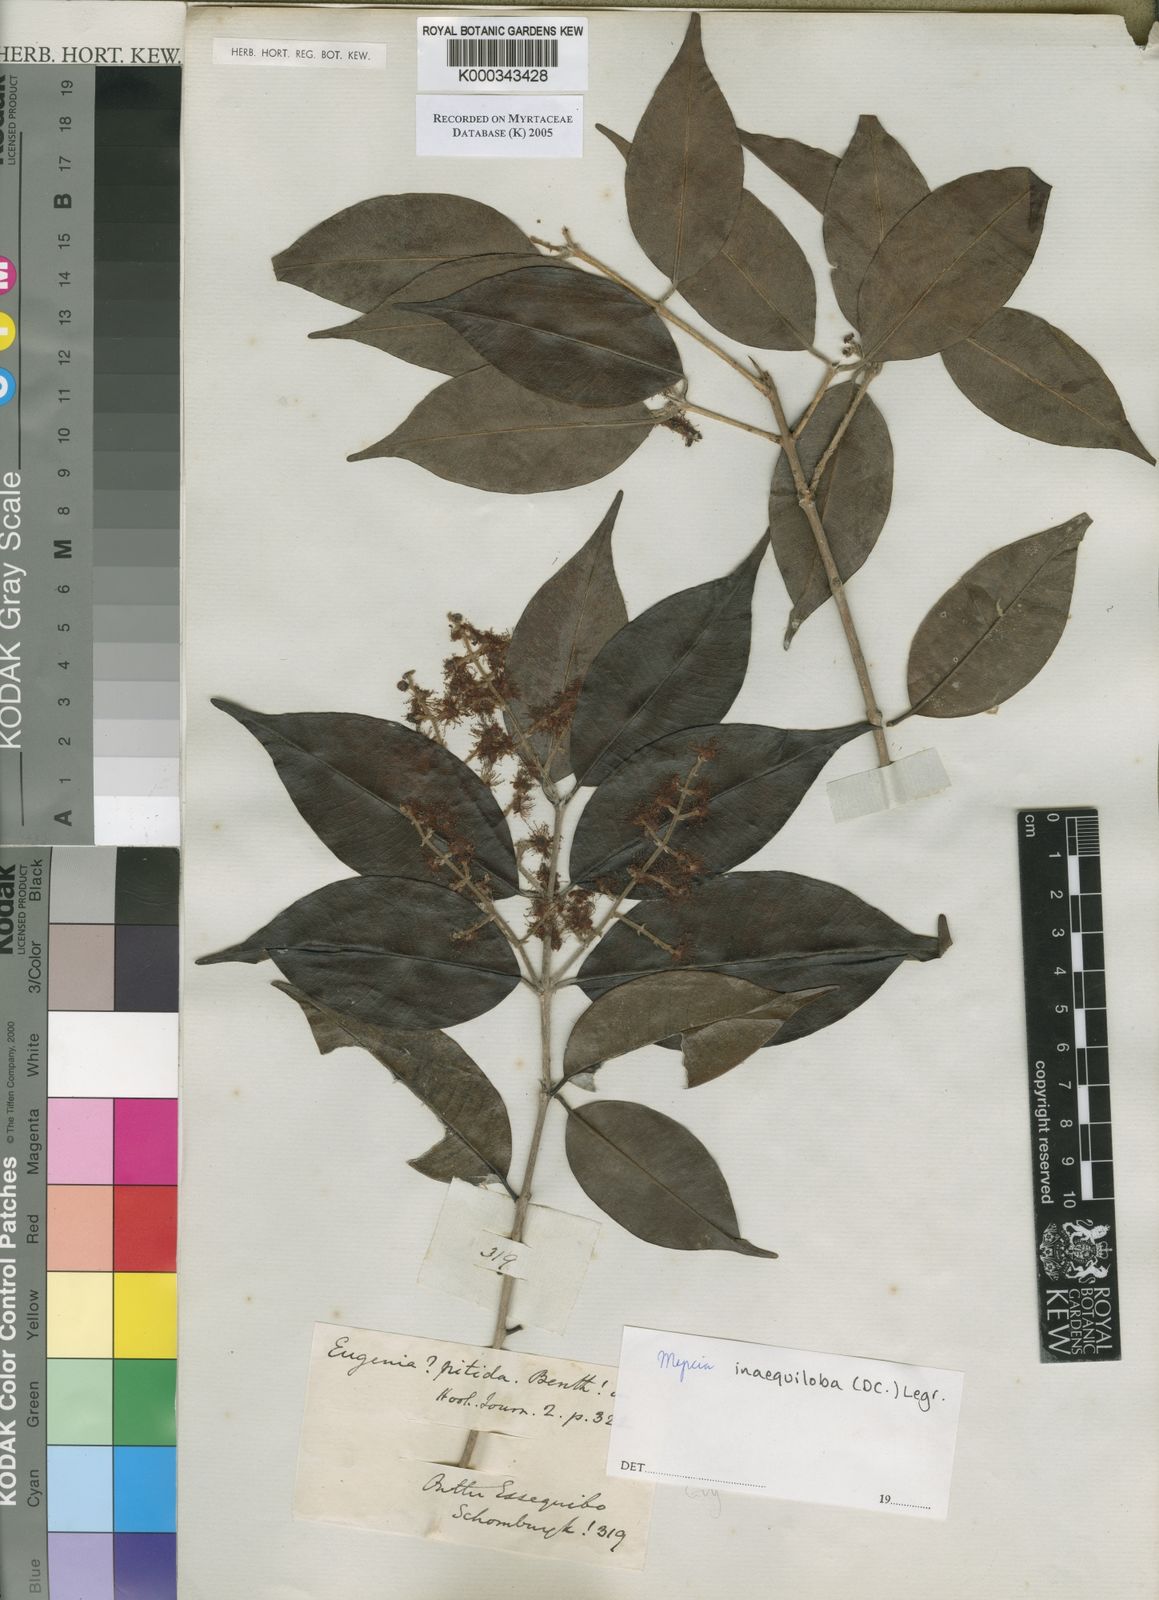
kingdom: Plantae
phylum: Tracheophyta
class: Magnoliopsida
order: Myrtales
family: Myrtaceae
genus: Myrcia
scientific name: Myrcia
